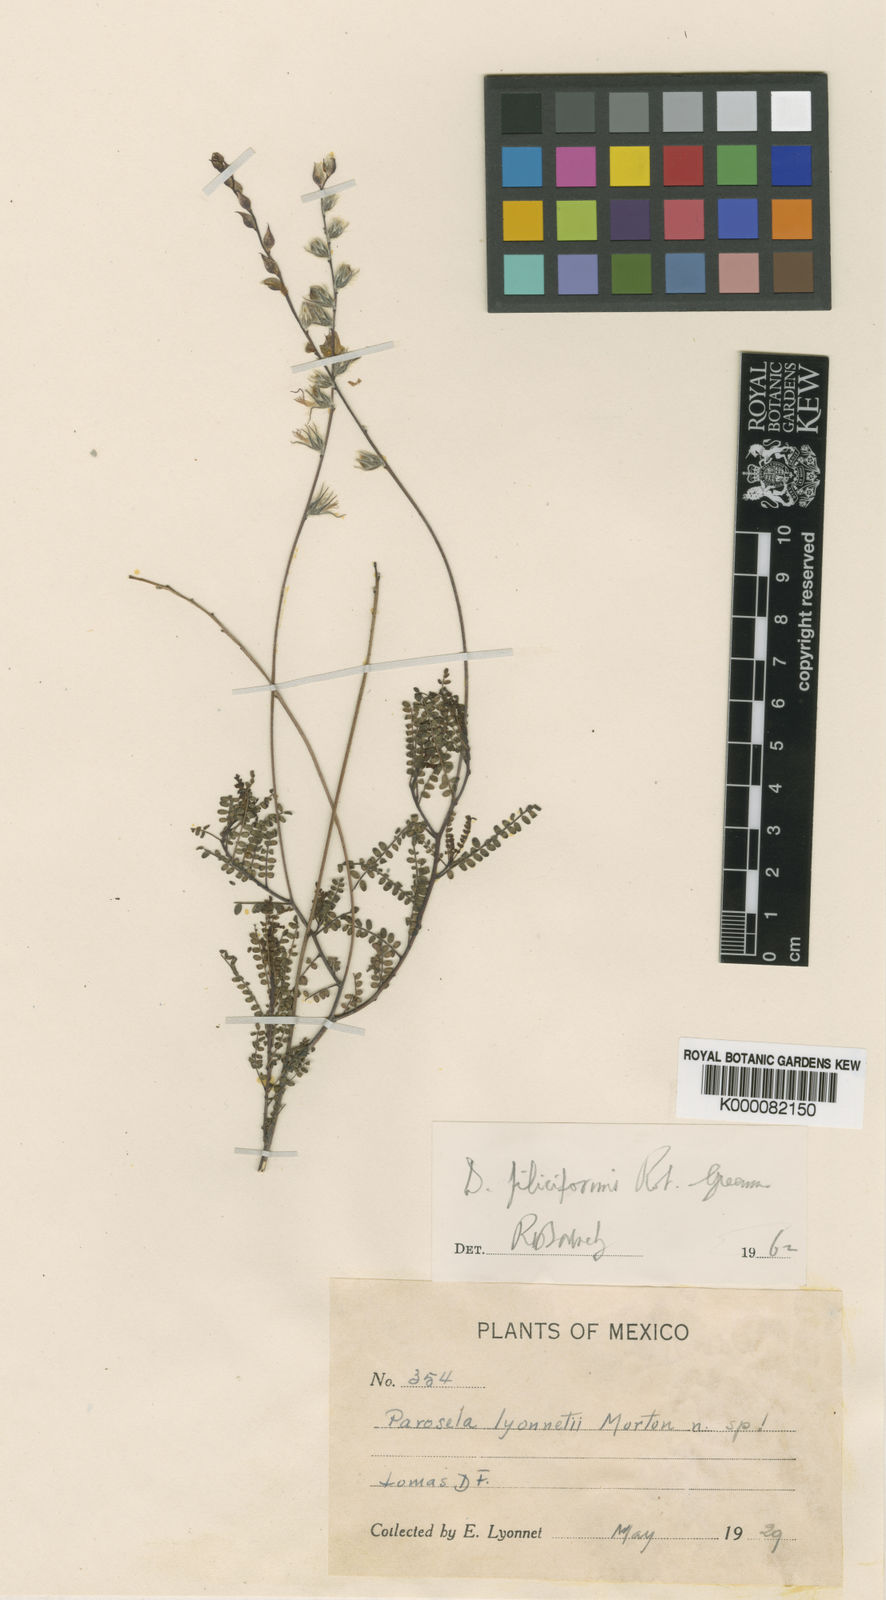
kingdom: Plantae
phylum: Tracheophyta
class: Magnoliopsida
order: Fabales
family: Fabaceae
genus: Dalea
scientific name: Dalea filiciformis
